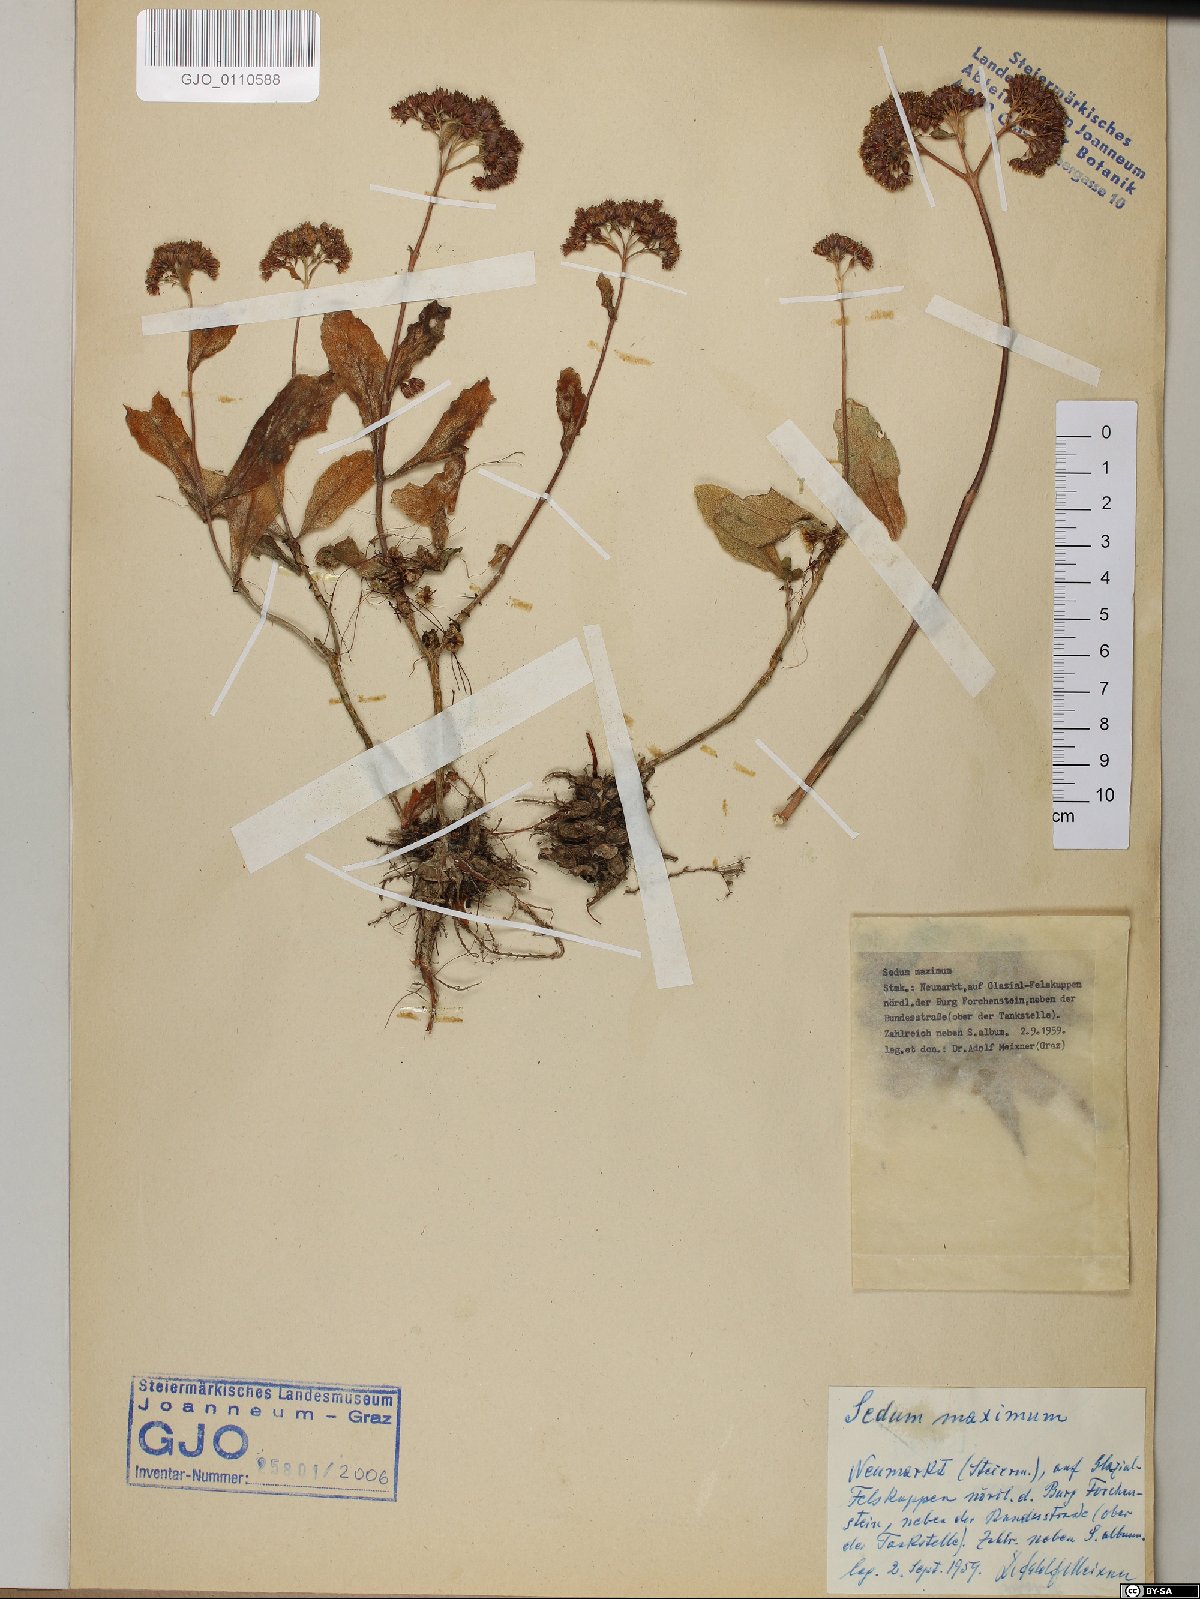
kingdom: Plantae
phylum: Tracheophyta
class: Magnoliopsida
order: Saxifragales
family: Crassulaceae
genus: Hylotelephium
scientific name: Hylotelephium maximum
